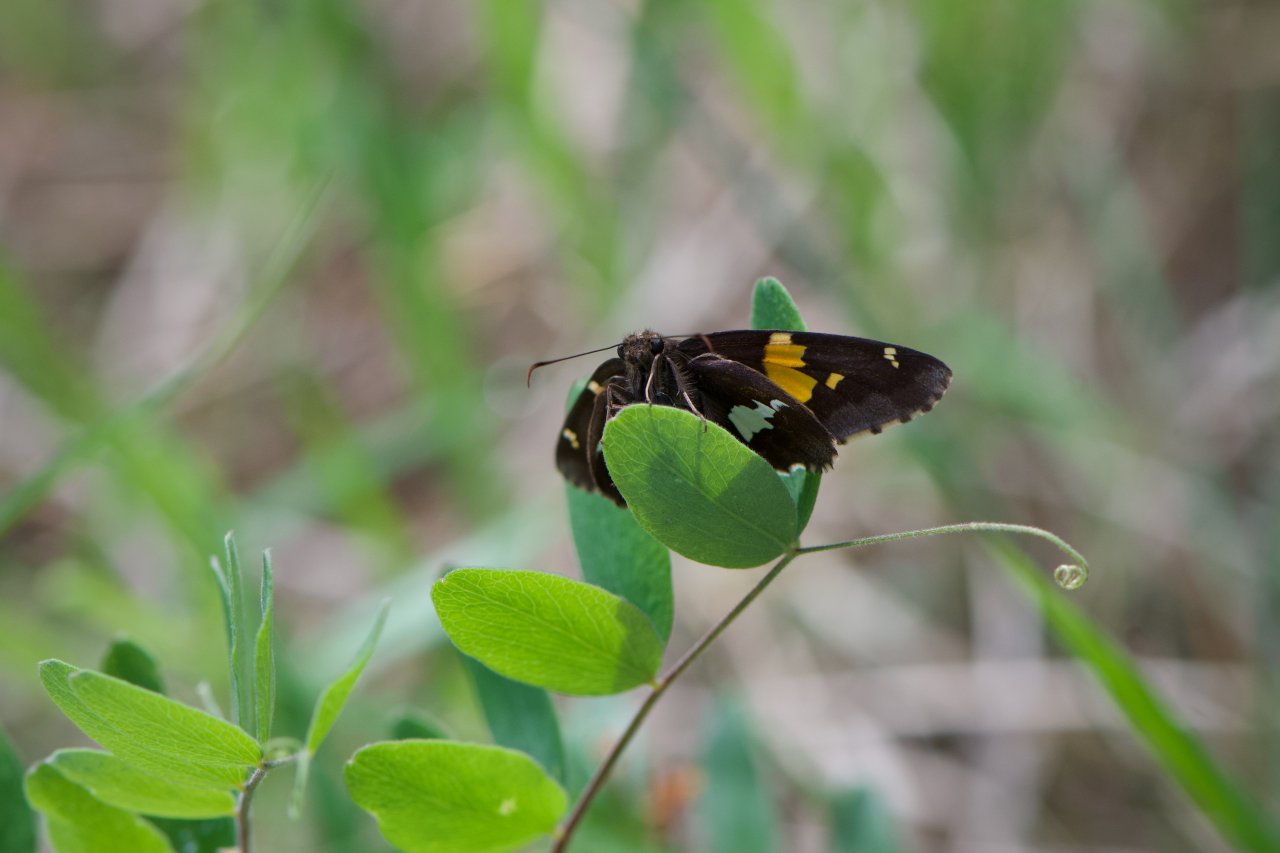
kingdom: Animalia
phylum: Arthropoda
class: Insecta
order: Lepidoptera
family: Hesperiidae
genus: Epargyreus
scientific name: Epargyreus clarus
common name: Silver-spotted Skipper
